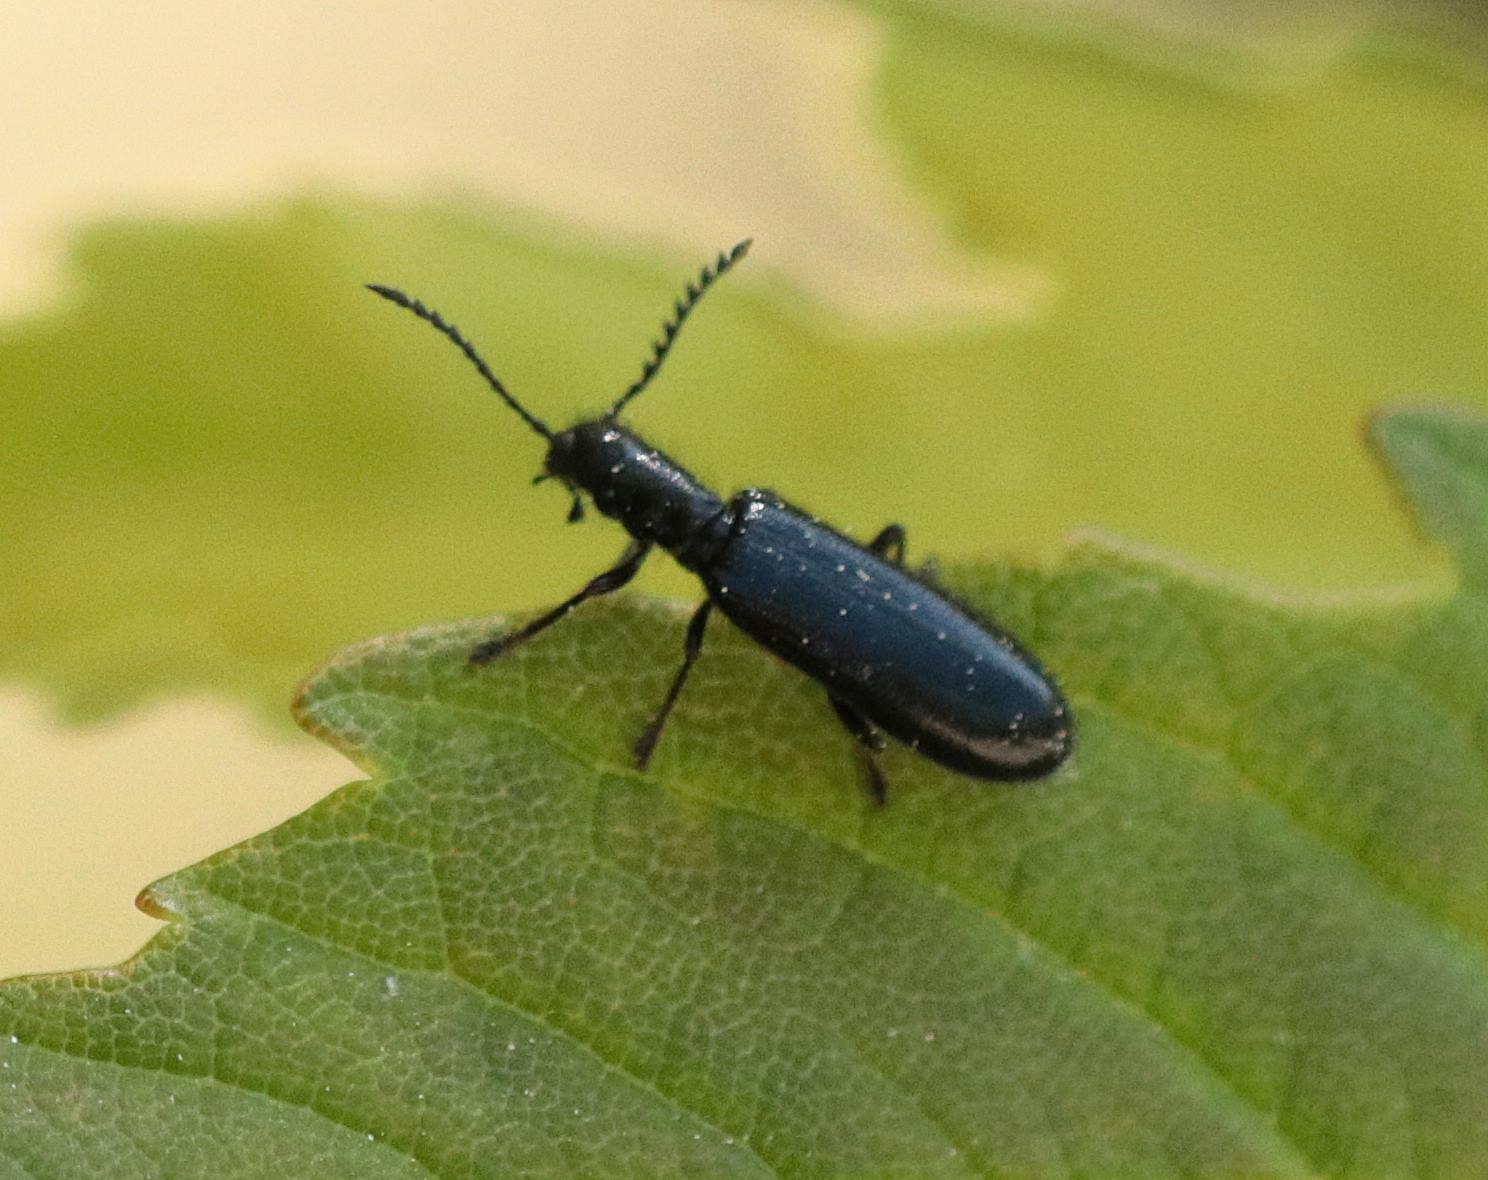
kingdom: Animalia
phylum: Arthropoda
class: Insecta
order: Coleoptera
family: Cleridae
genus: Tillus
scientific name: Tillus elongatus
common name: Blank myrebille
